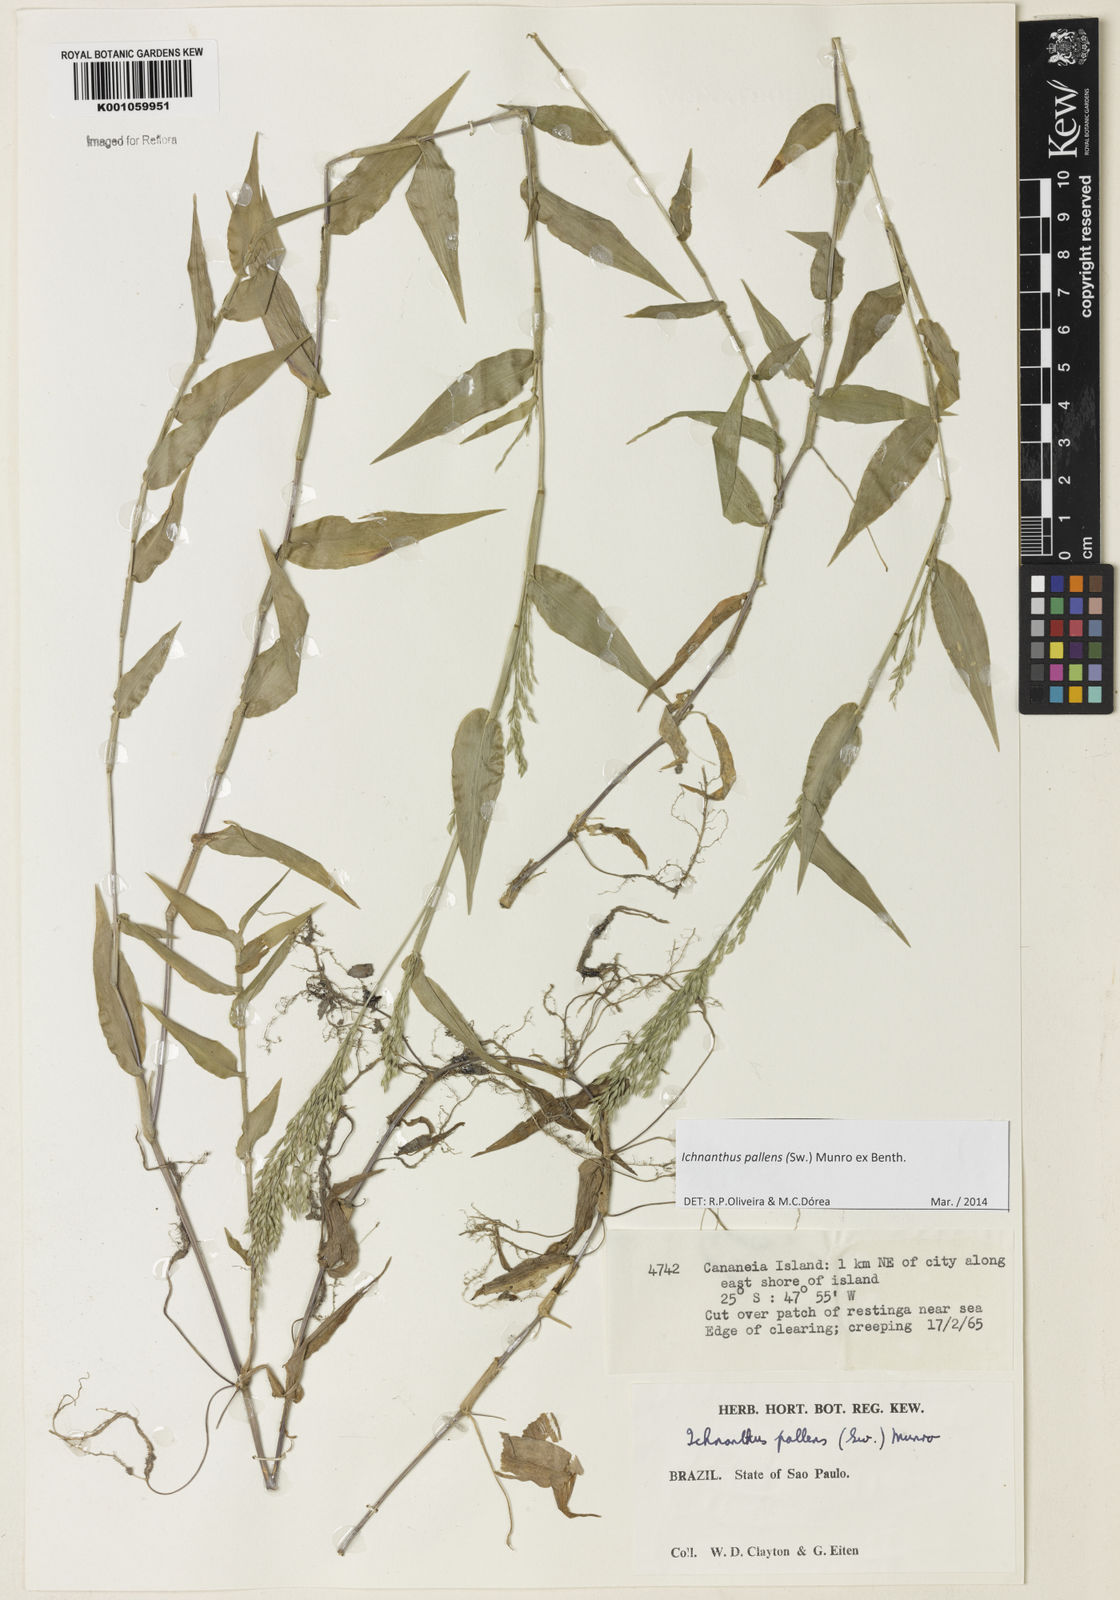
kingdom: Plantae
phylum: Tracheophyta
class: Liliopsida
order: Poales
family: Poaceae
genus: Ichnanthus
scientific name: Ichnanthus pallens
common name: Water grass
